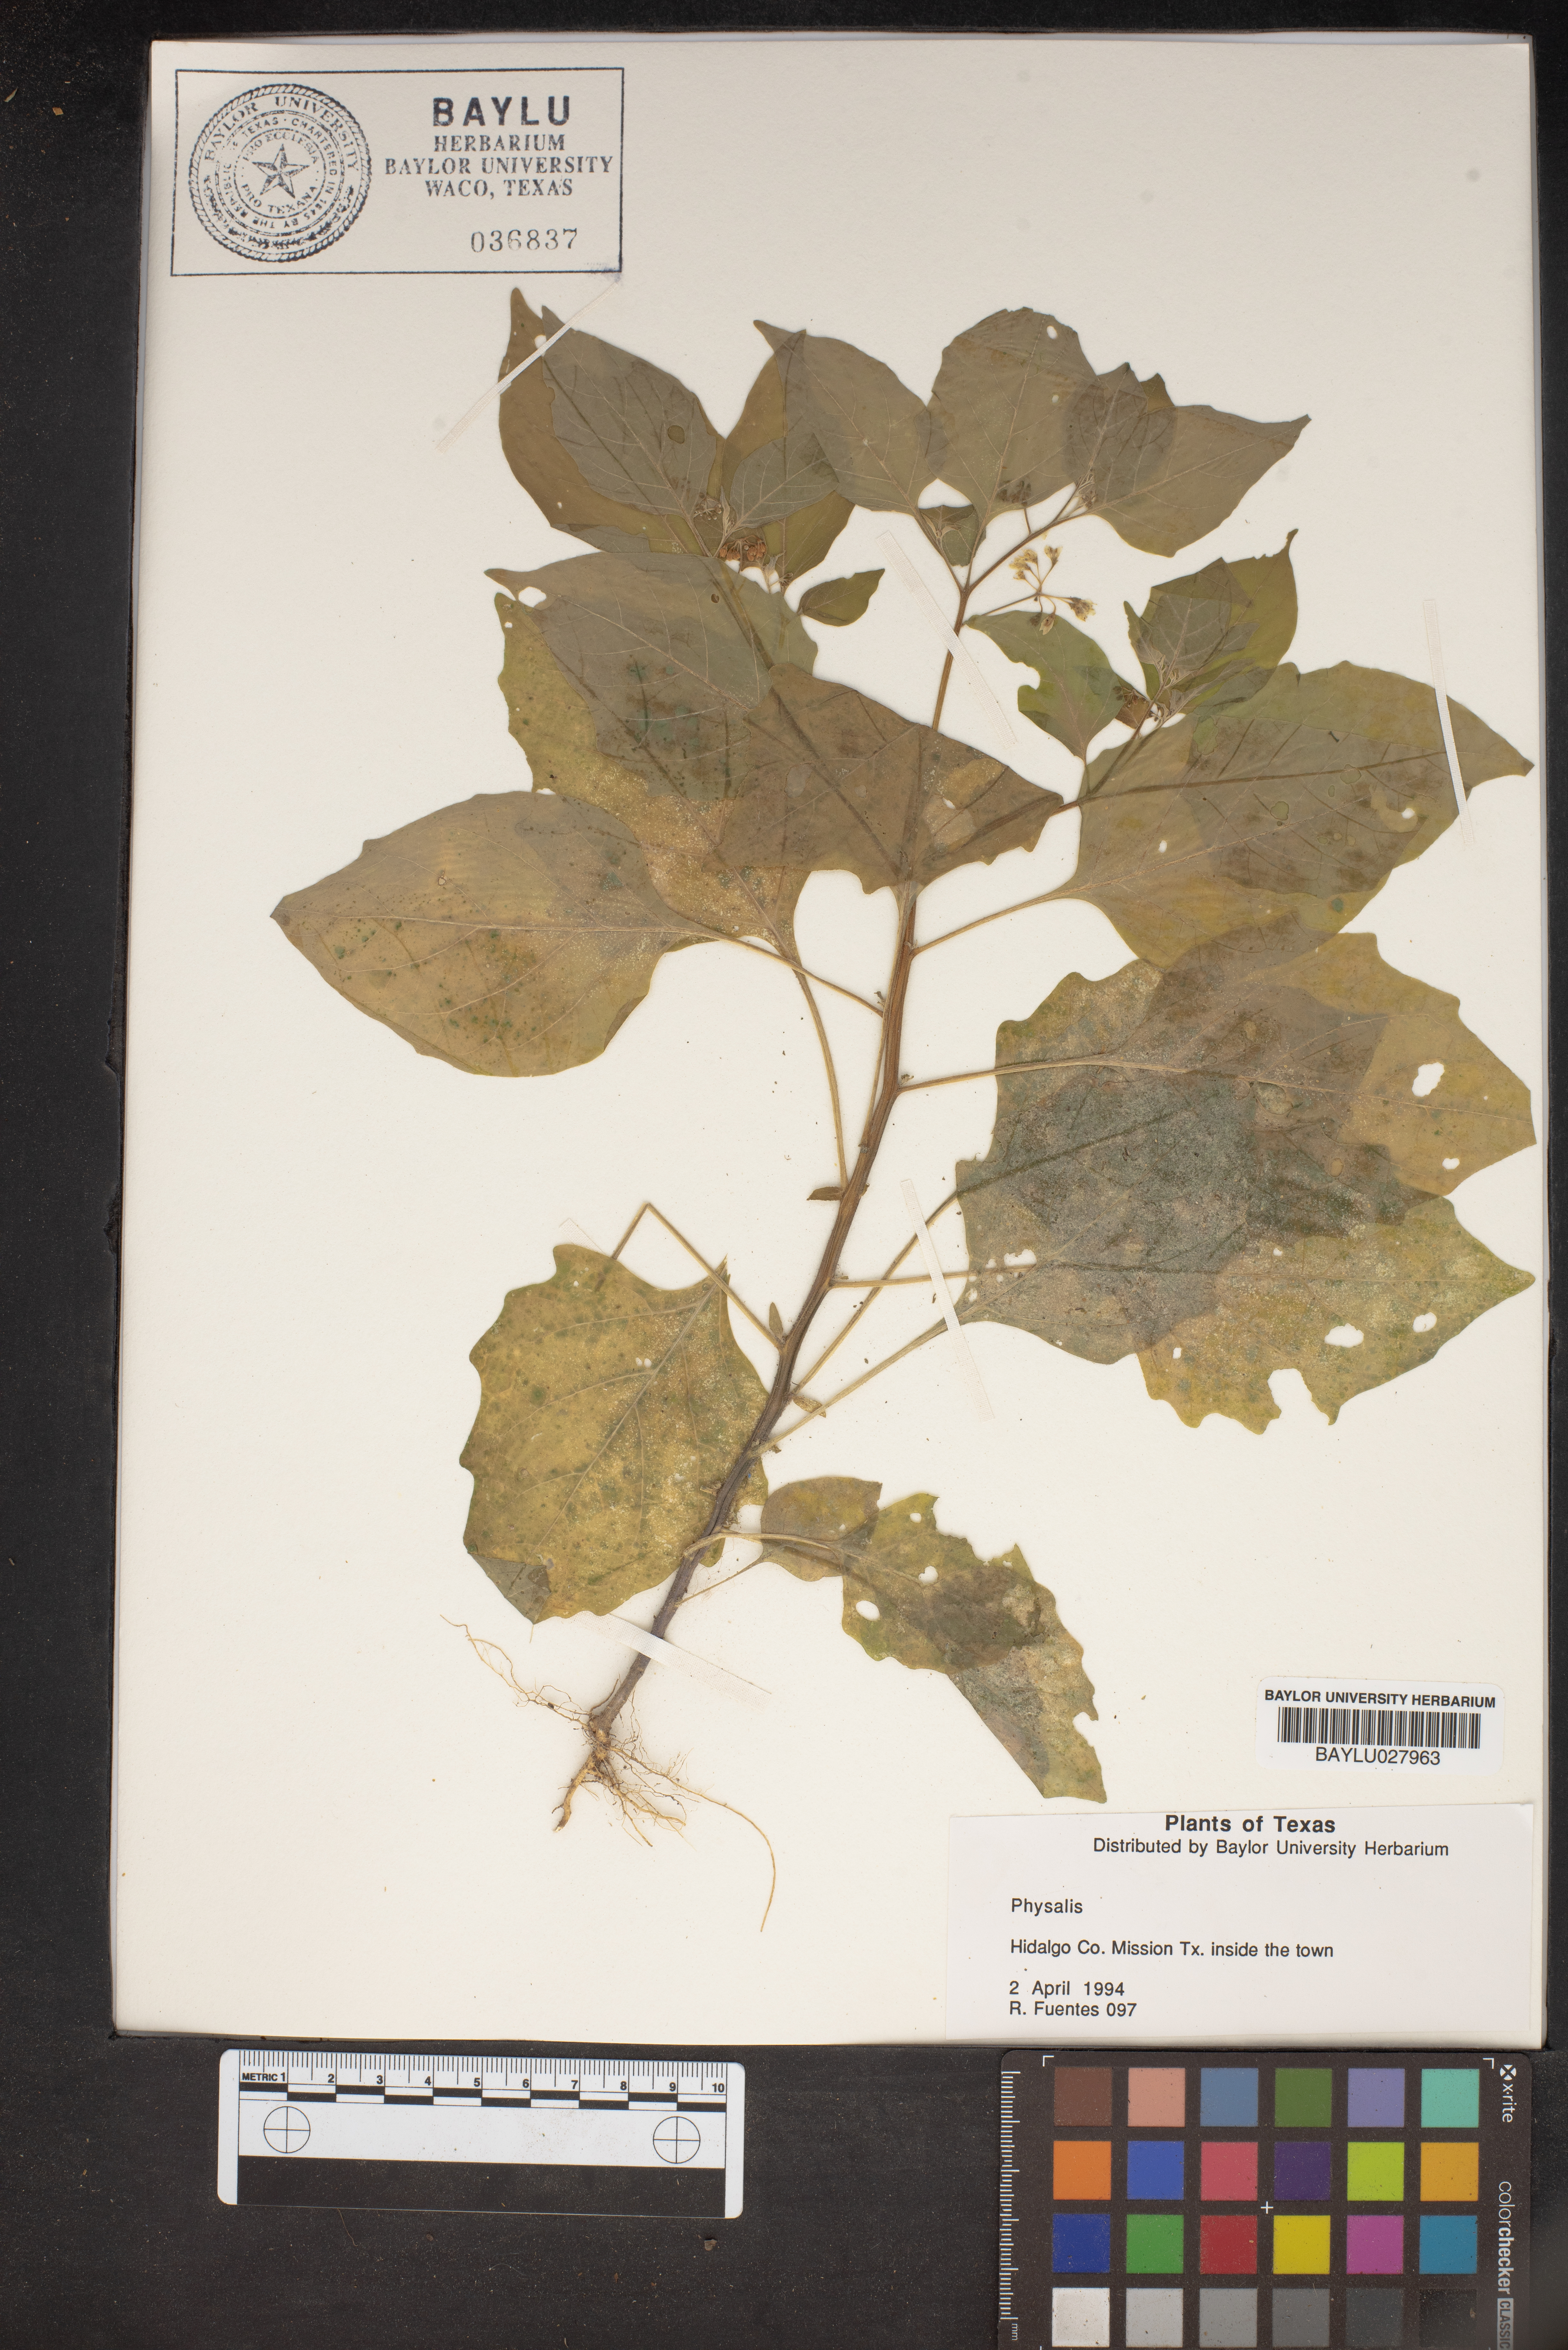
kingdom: Plantae
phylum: Tracheophyta
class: Magnoliopsida
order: Solanales
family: Solanaceae
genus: Physalis
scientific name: Physalis
